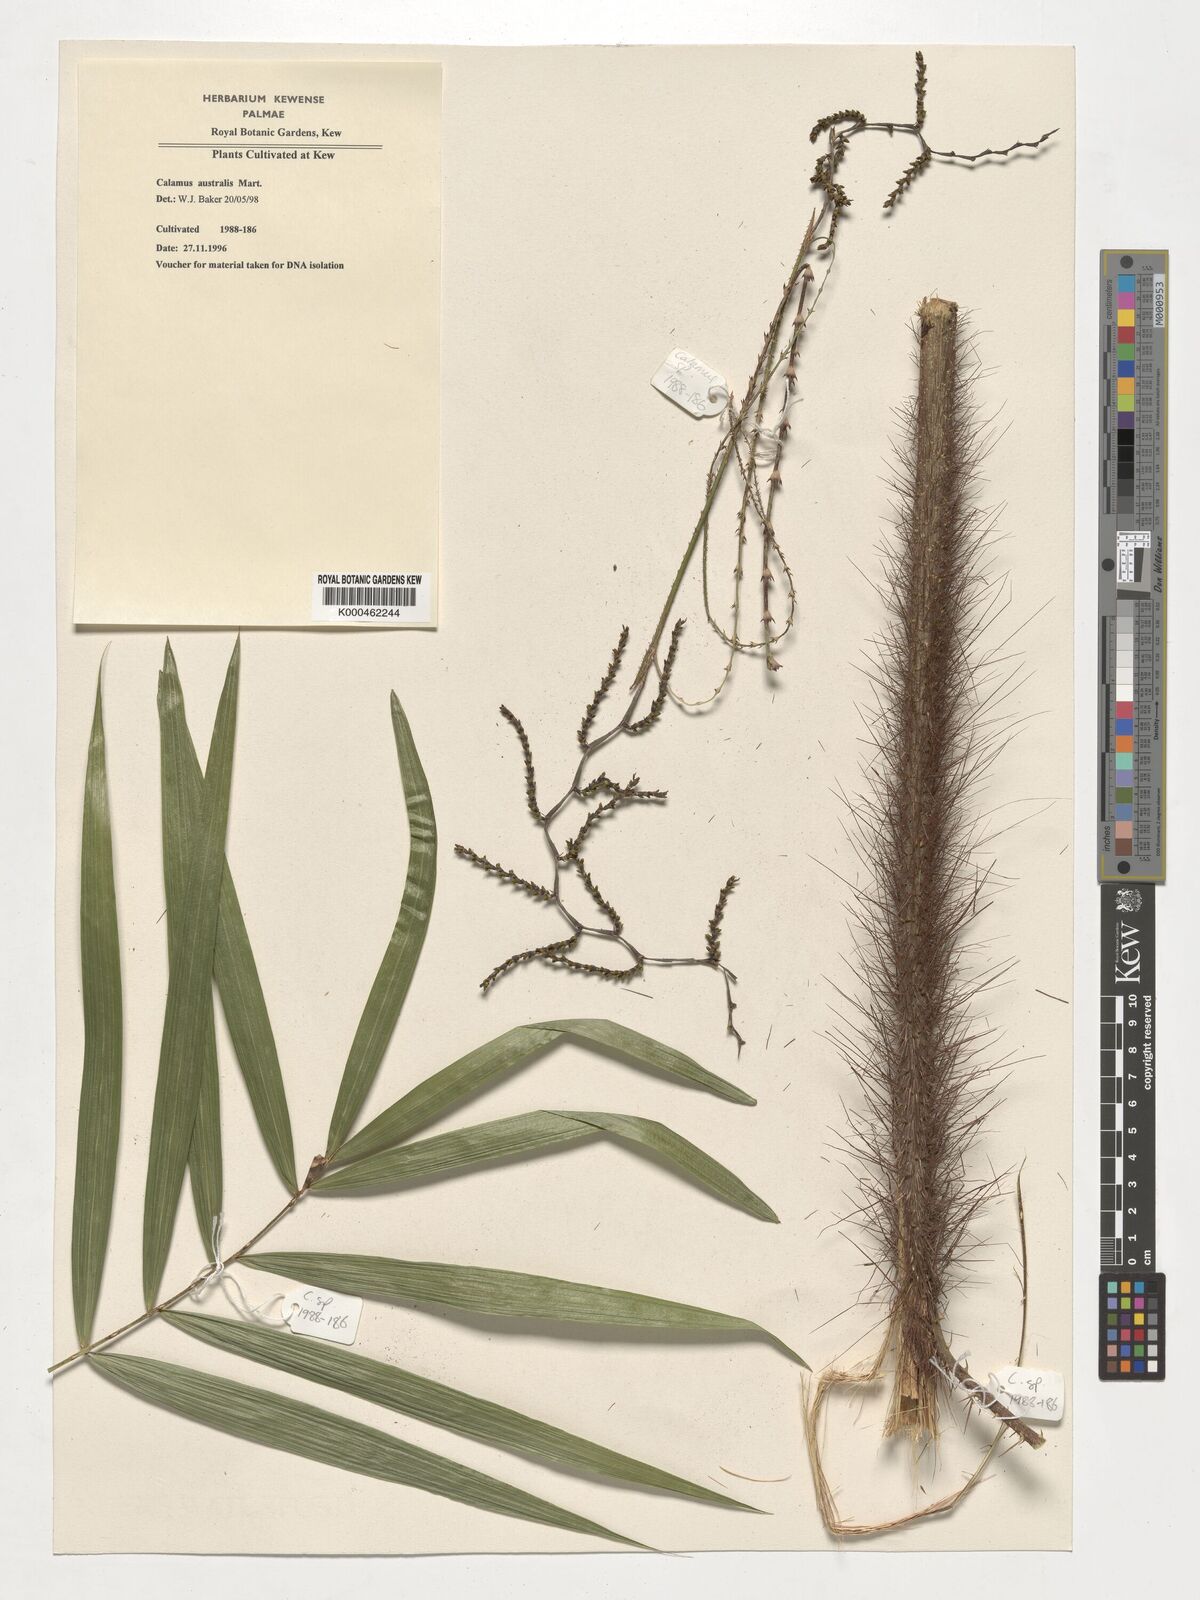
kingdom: Plantae
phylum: Tracheophyta
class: Liliopsida
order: Arecales
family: Arecaceae
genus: Calamus
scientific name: Calamus australis
